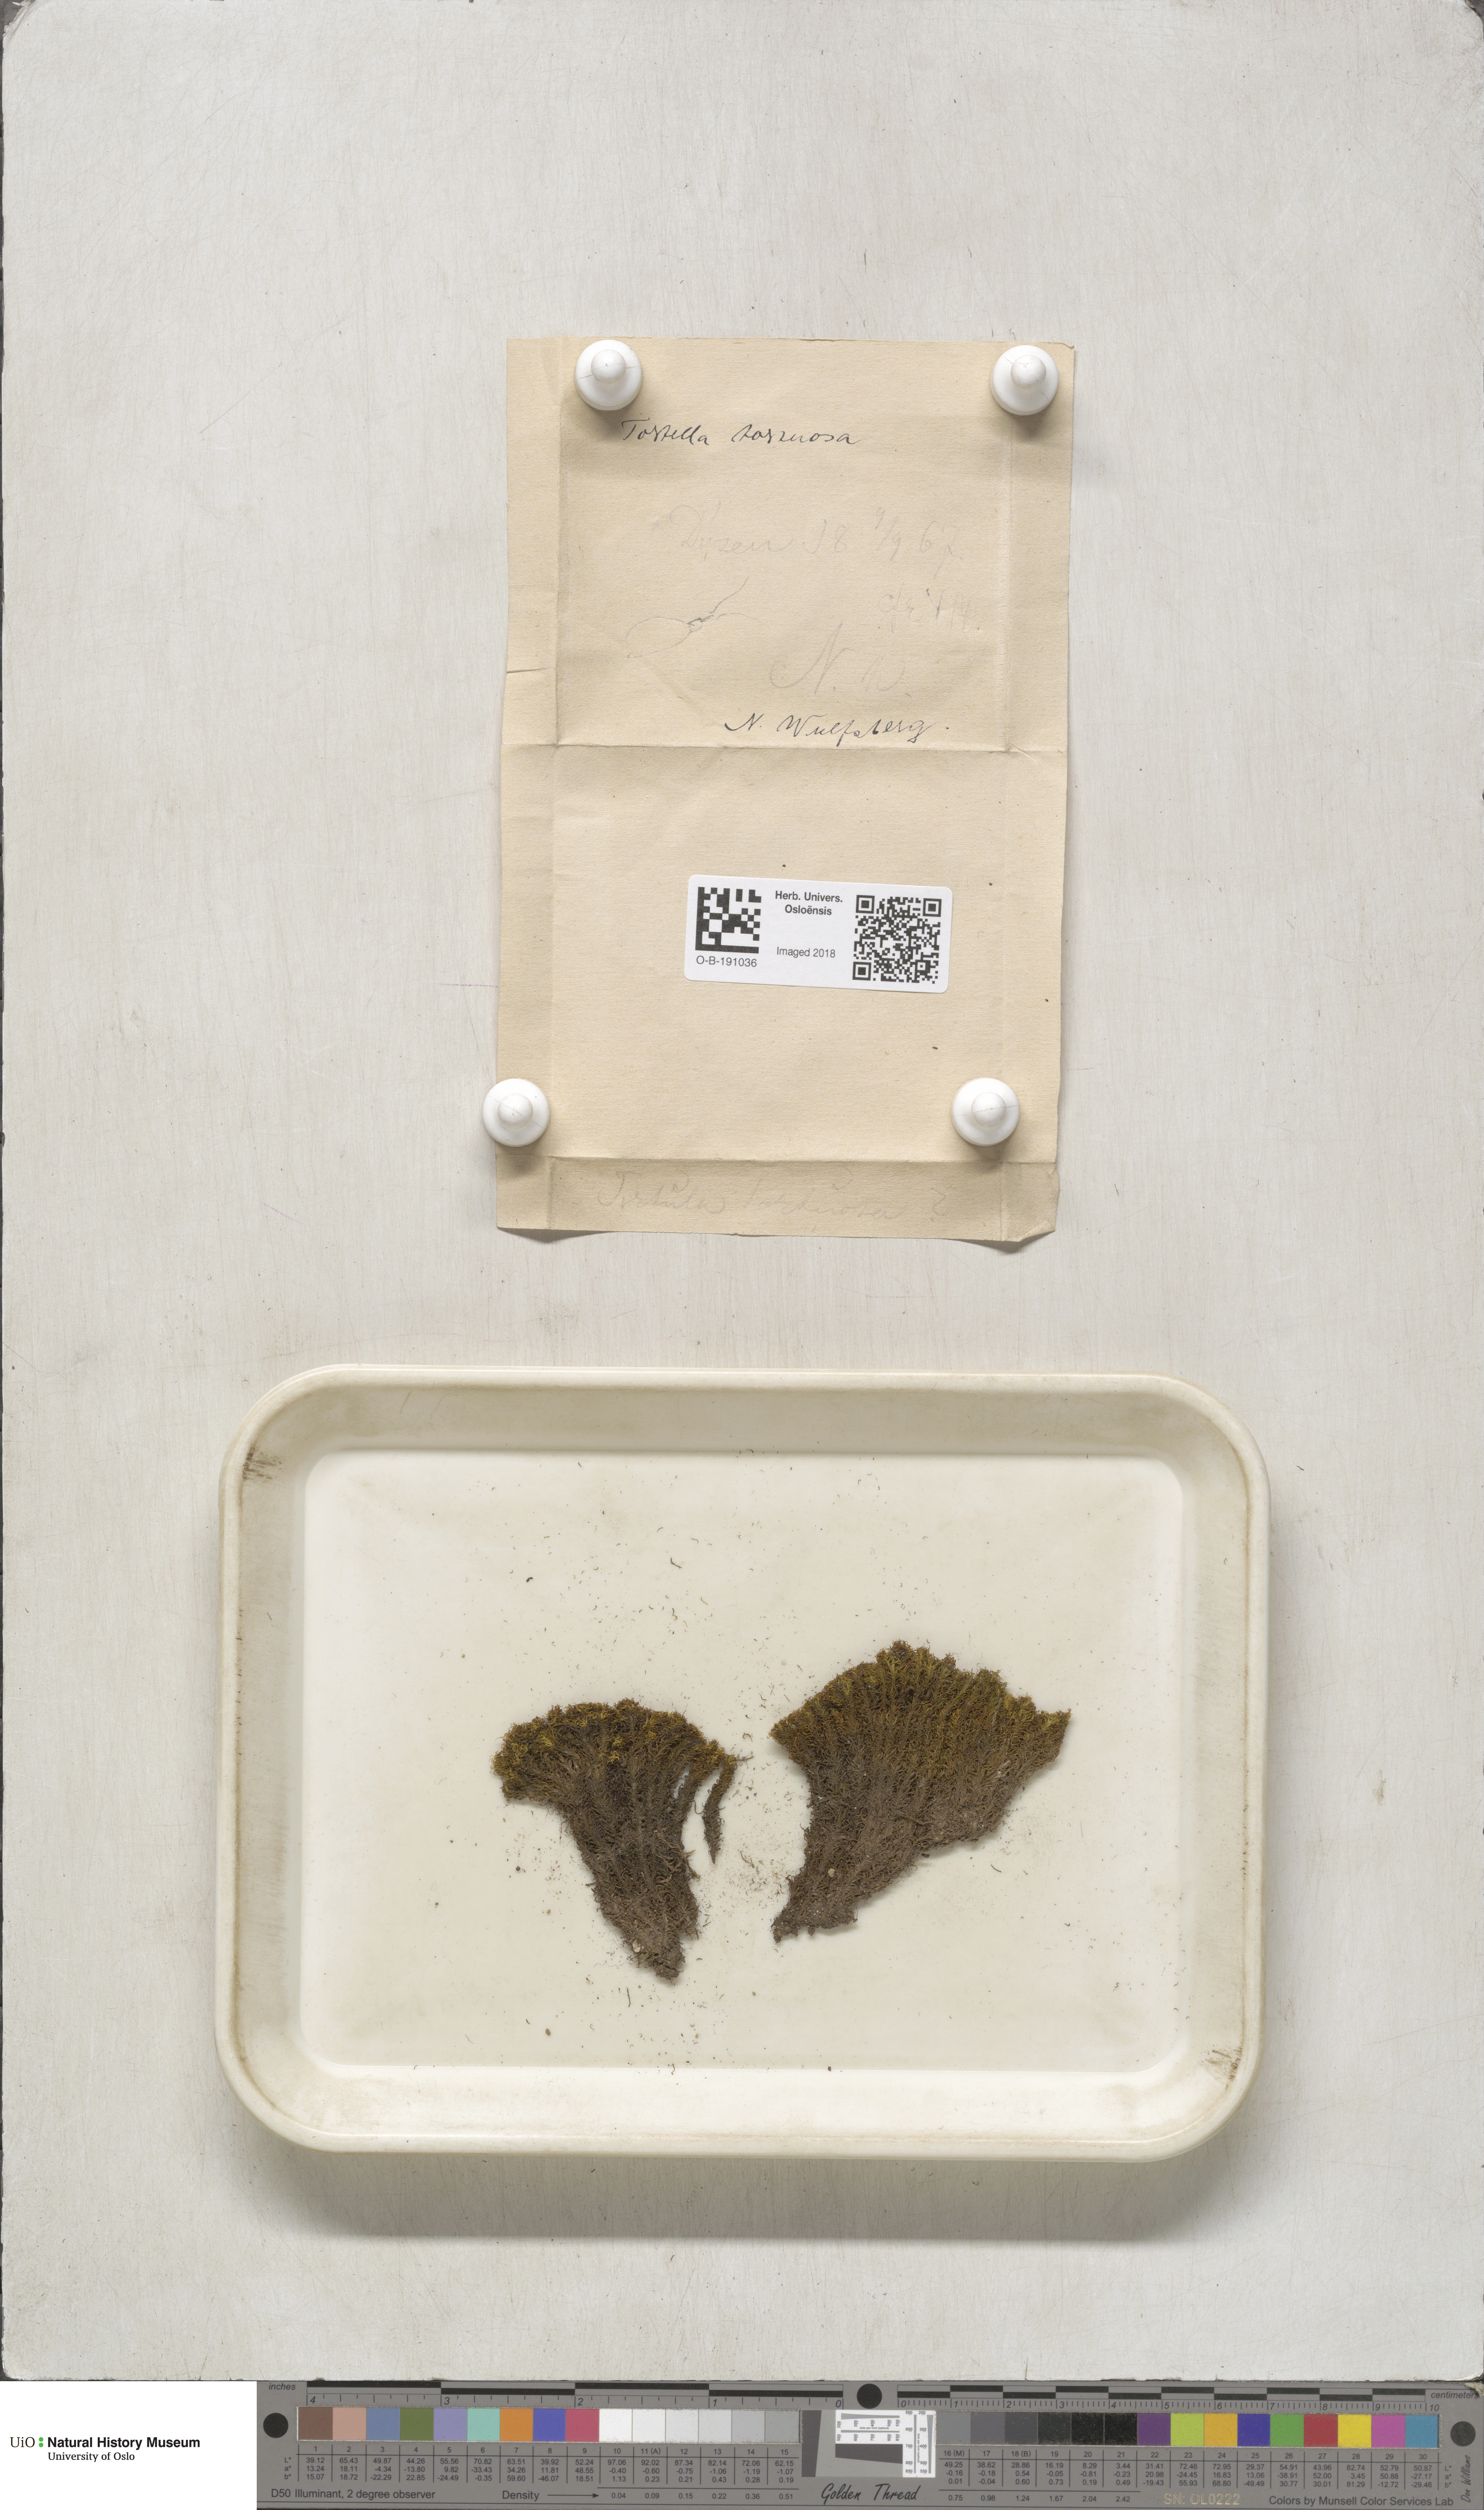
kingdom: Plantae
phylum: Bryophyta
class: Bryopsida
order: Pottiales
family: Pottiaceae
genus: Tortella
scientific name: Tortella tortuosa
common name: Frizzled crisp moss
